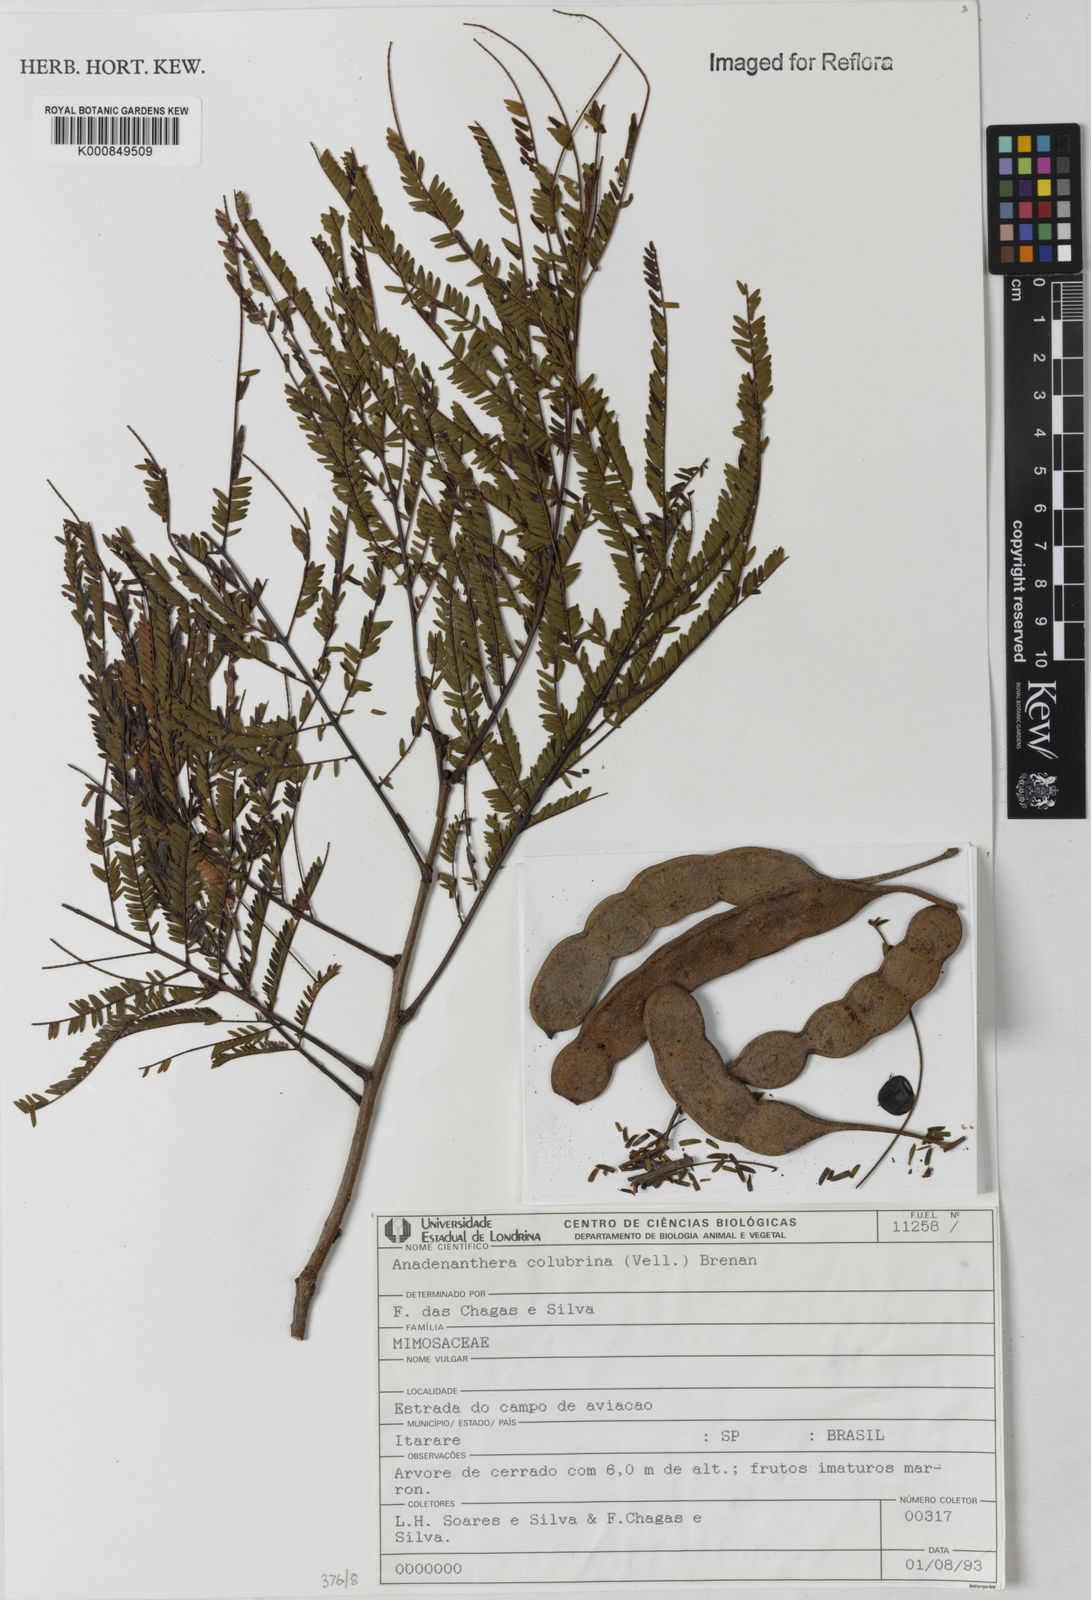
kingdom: Plantae
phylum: Tracheophyta
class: Magnoliopsida
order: Fabales
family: Fabaceae
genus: Anadenanthera
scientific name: Anadenanthera colubrina
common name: Curupay
